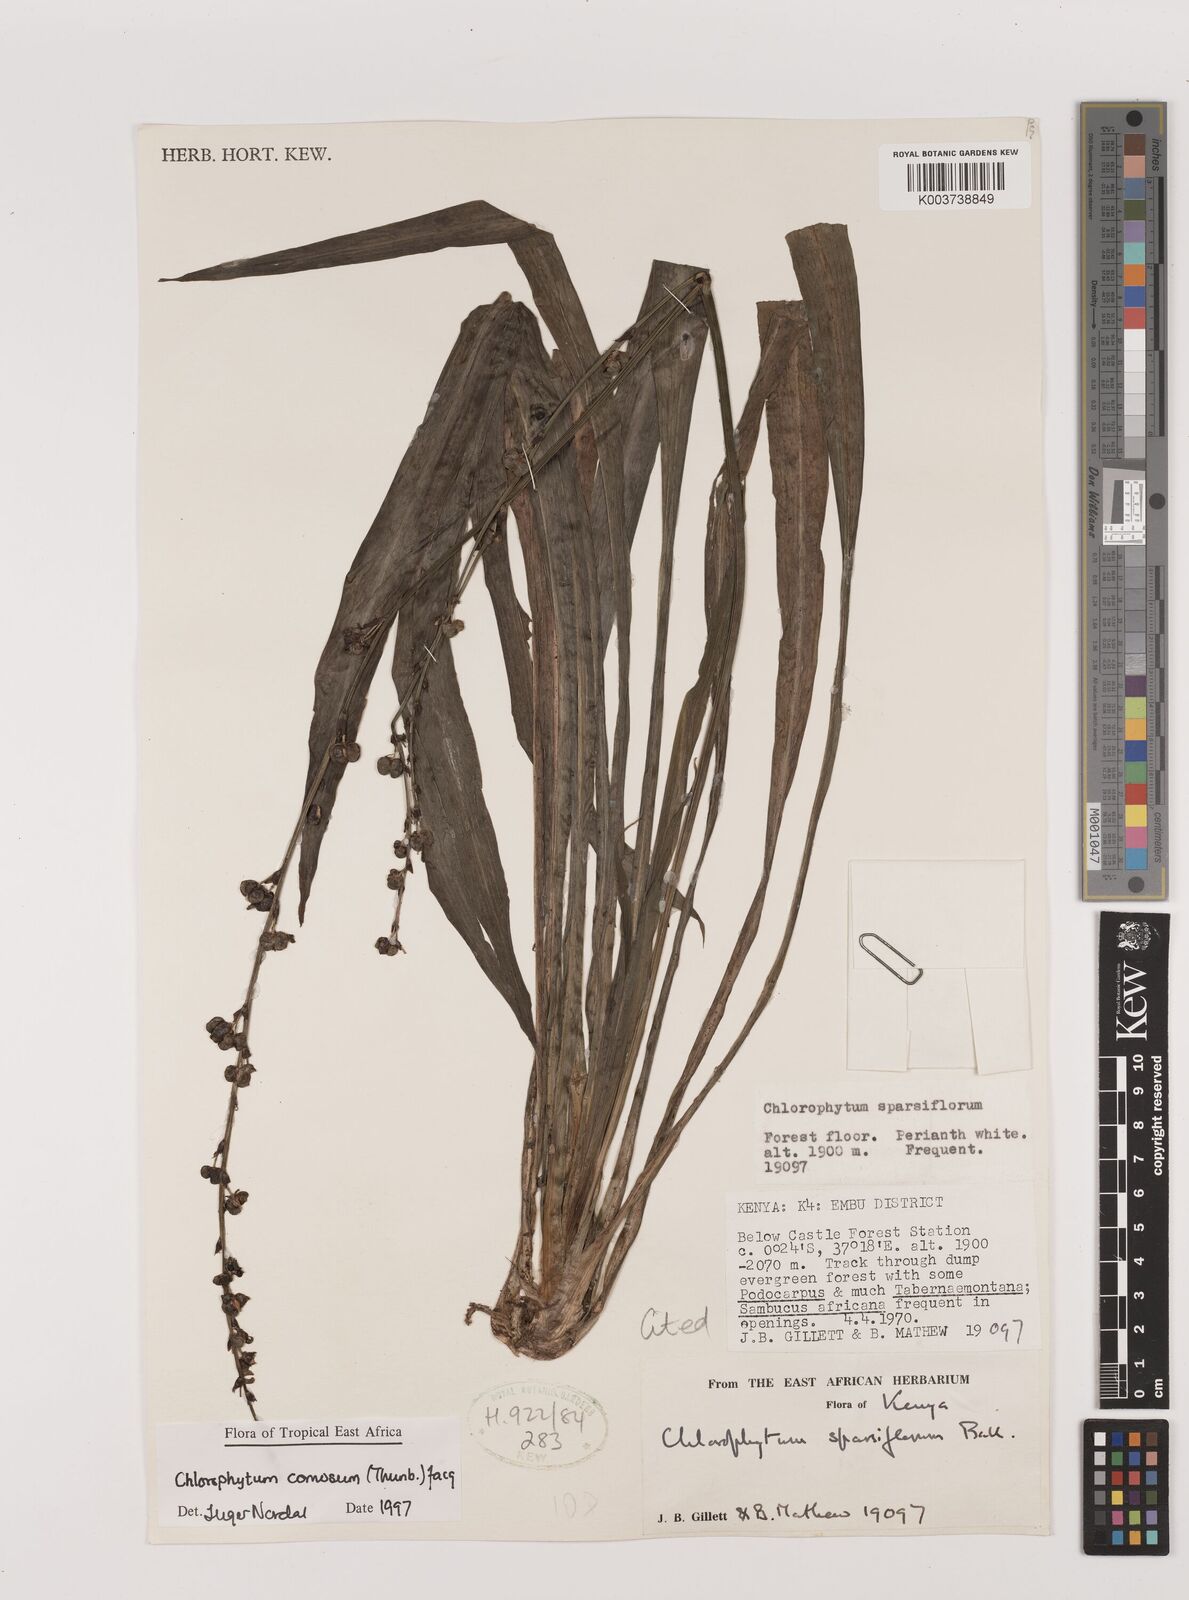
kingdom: Plantae
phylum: Tracheophyta
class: Liliopsida
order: Asparagales
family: Asparagaceae
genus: Chlorophytum
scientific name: Chlorophytum comosum
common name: Spider plant
